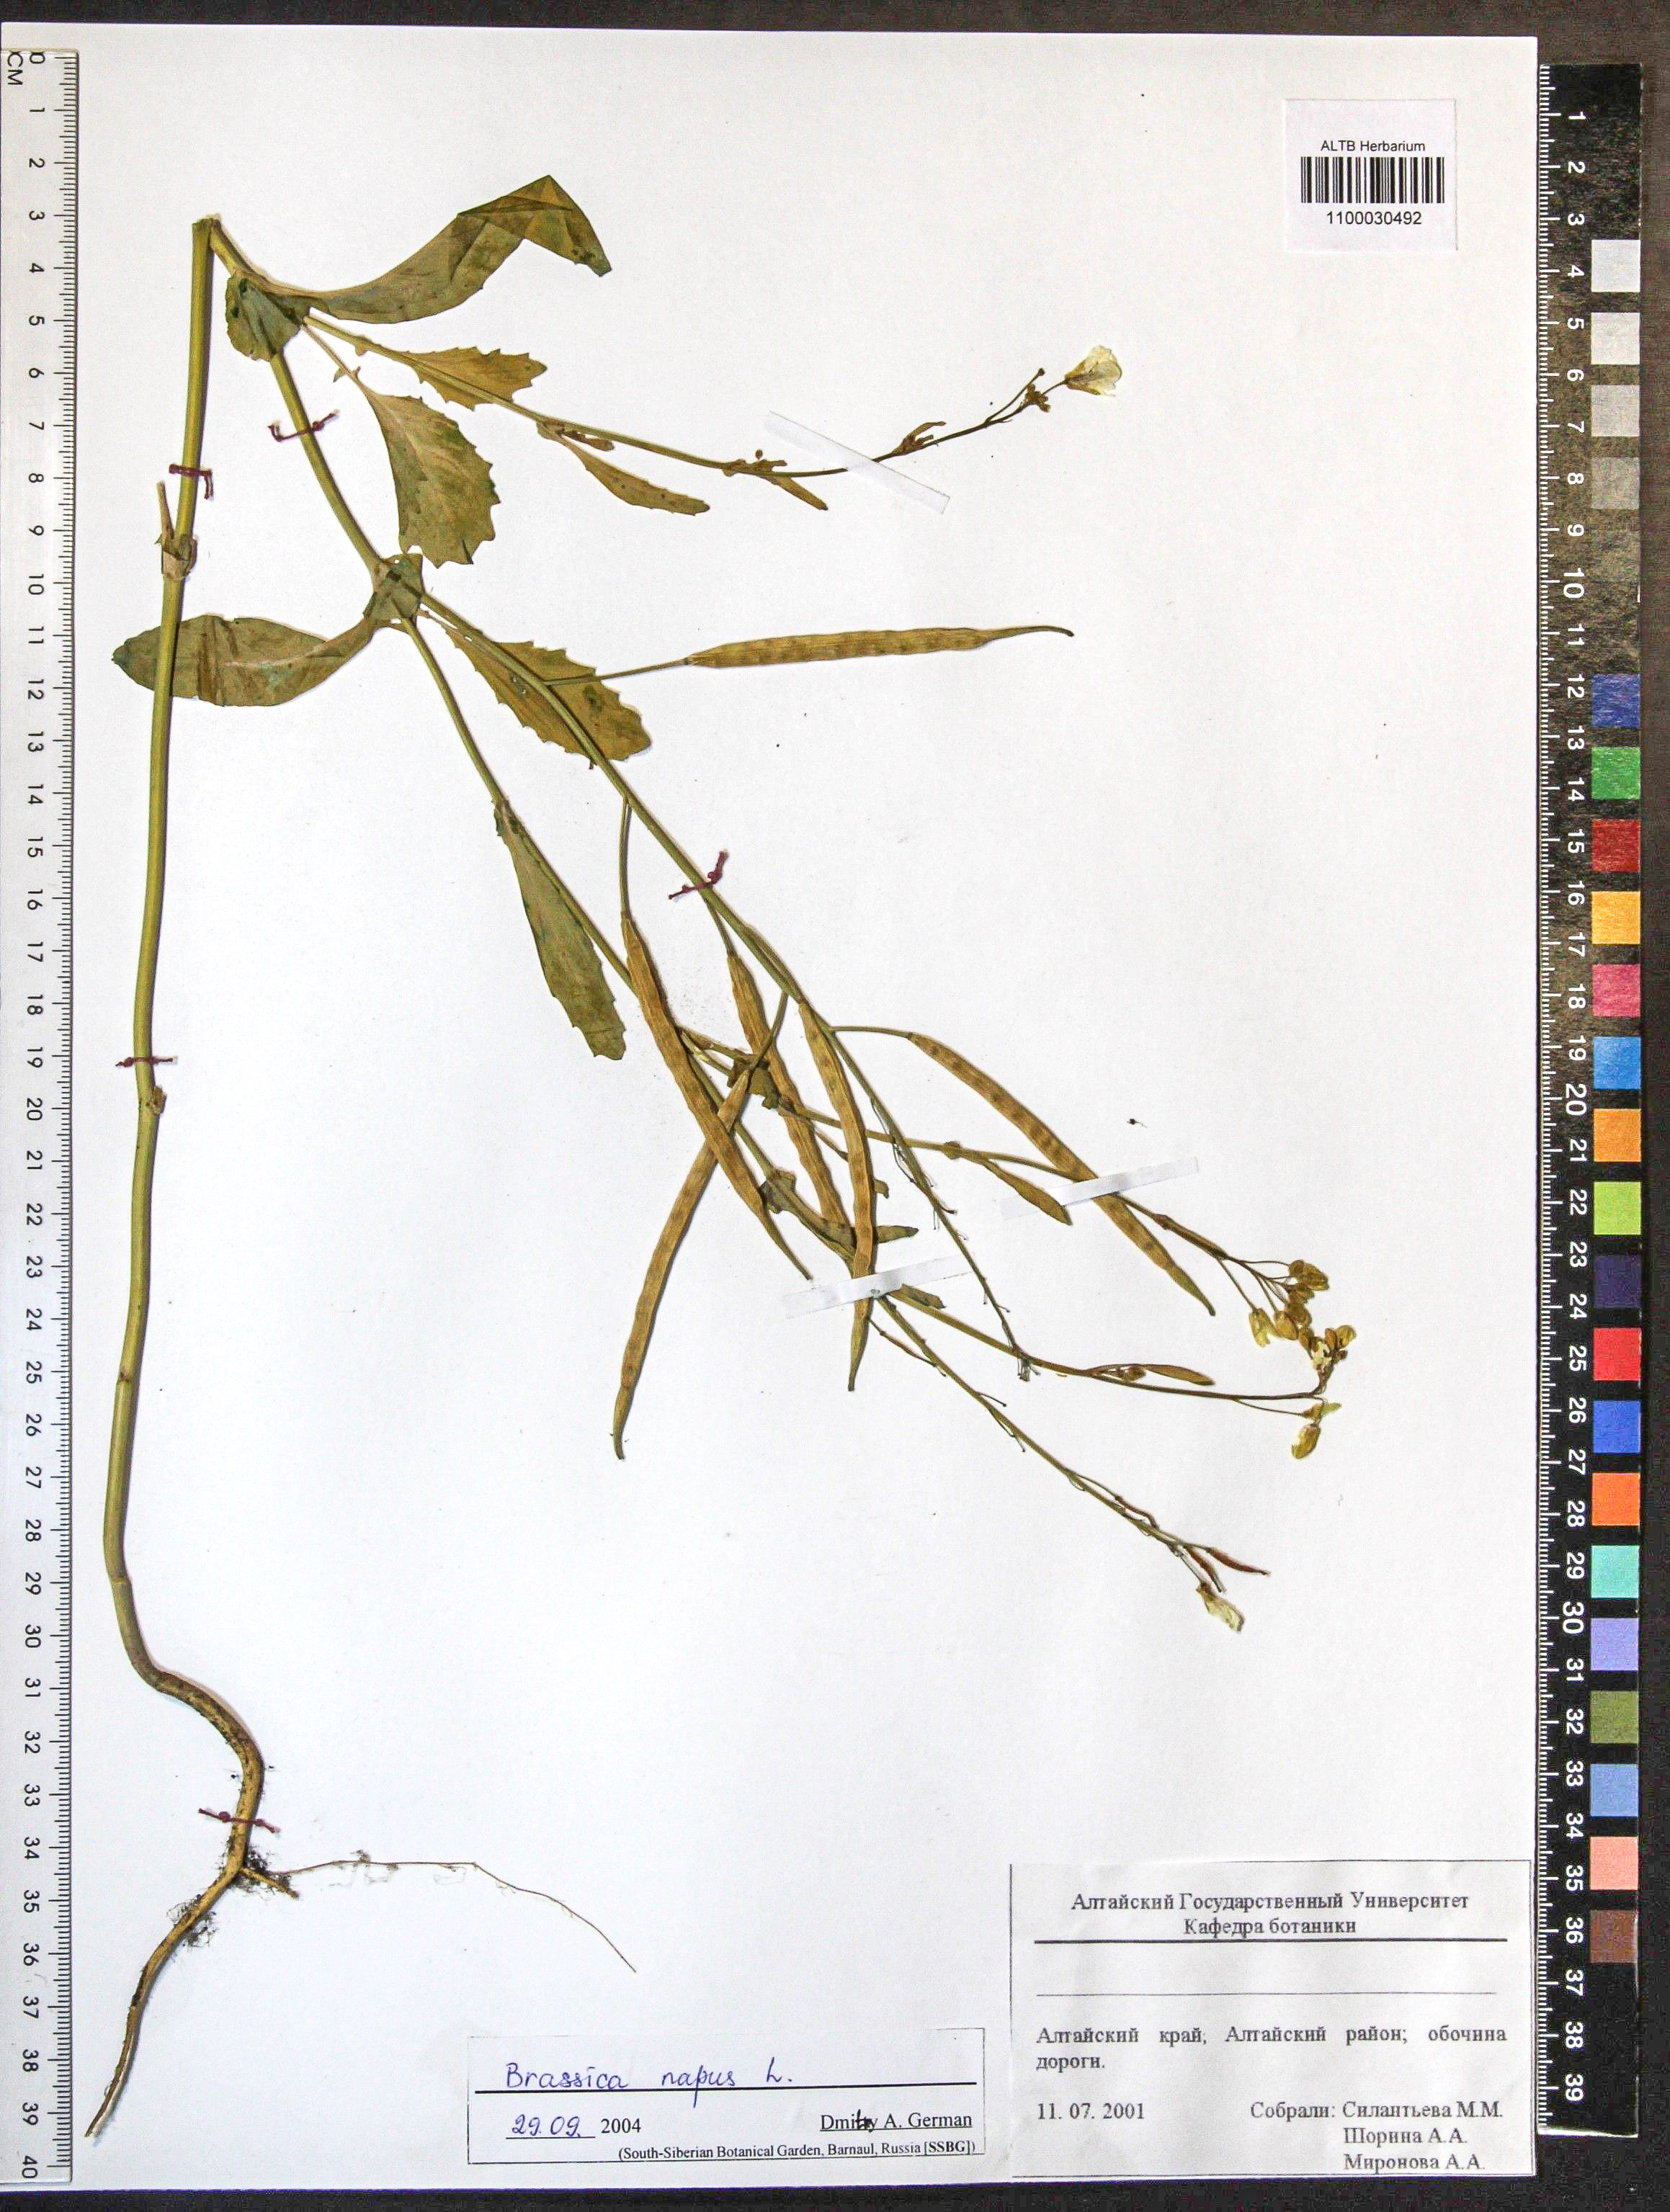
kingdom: Plantae
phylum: Tracheophyta
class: Magnoliopsida
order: Brassicales
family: Brassicaceae
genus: Brassica
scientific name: Brassica napus
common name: Rape
